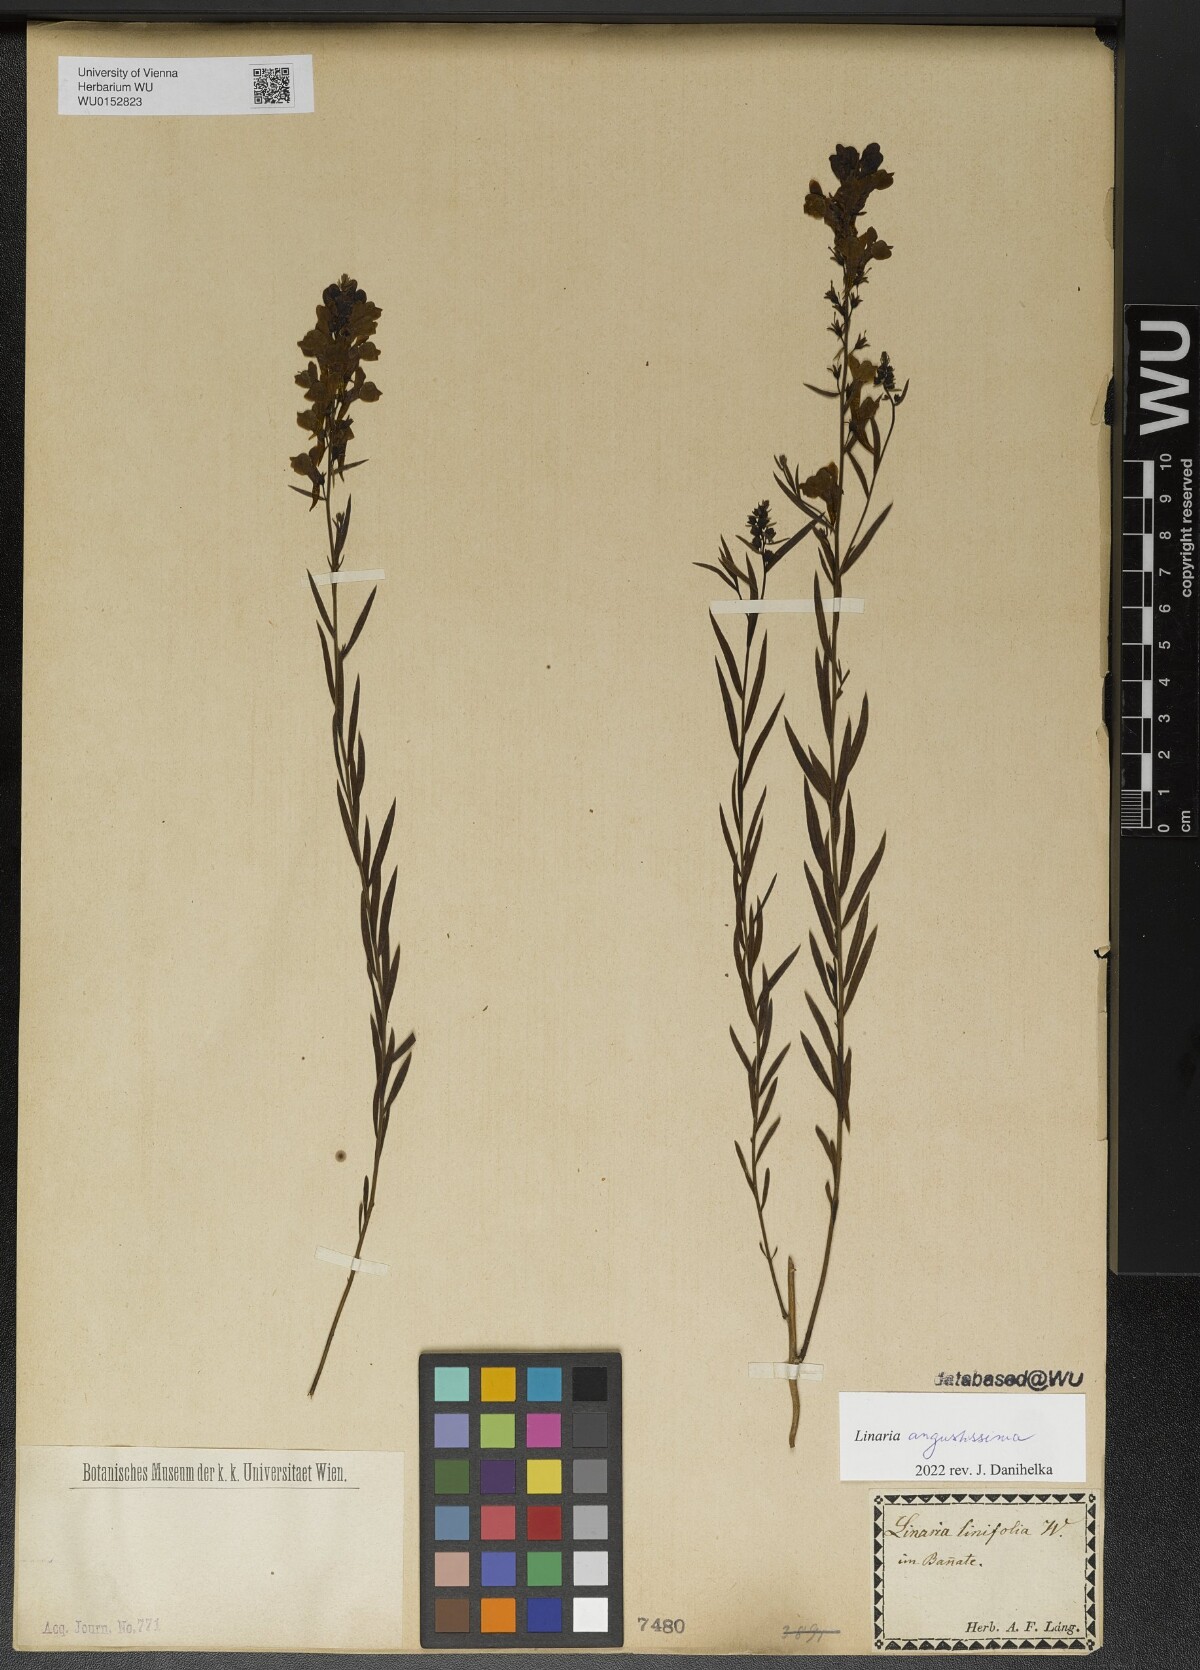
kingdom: Plantae
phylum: Tracheophyta
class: Magnoliopsida
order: Lamiales
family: Plantaginaceae
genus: Linaria
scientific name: Linaria angustissima
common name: Italian toadflax
